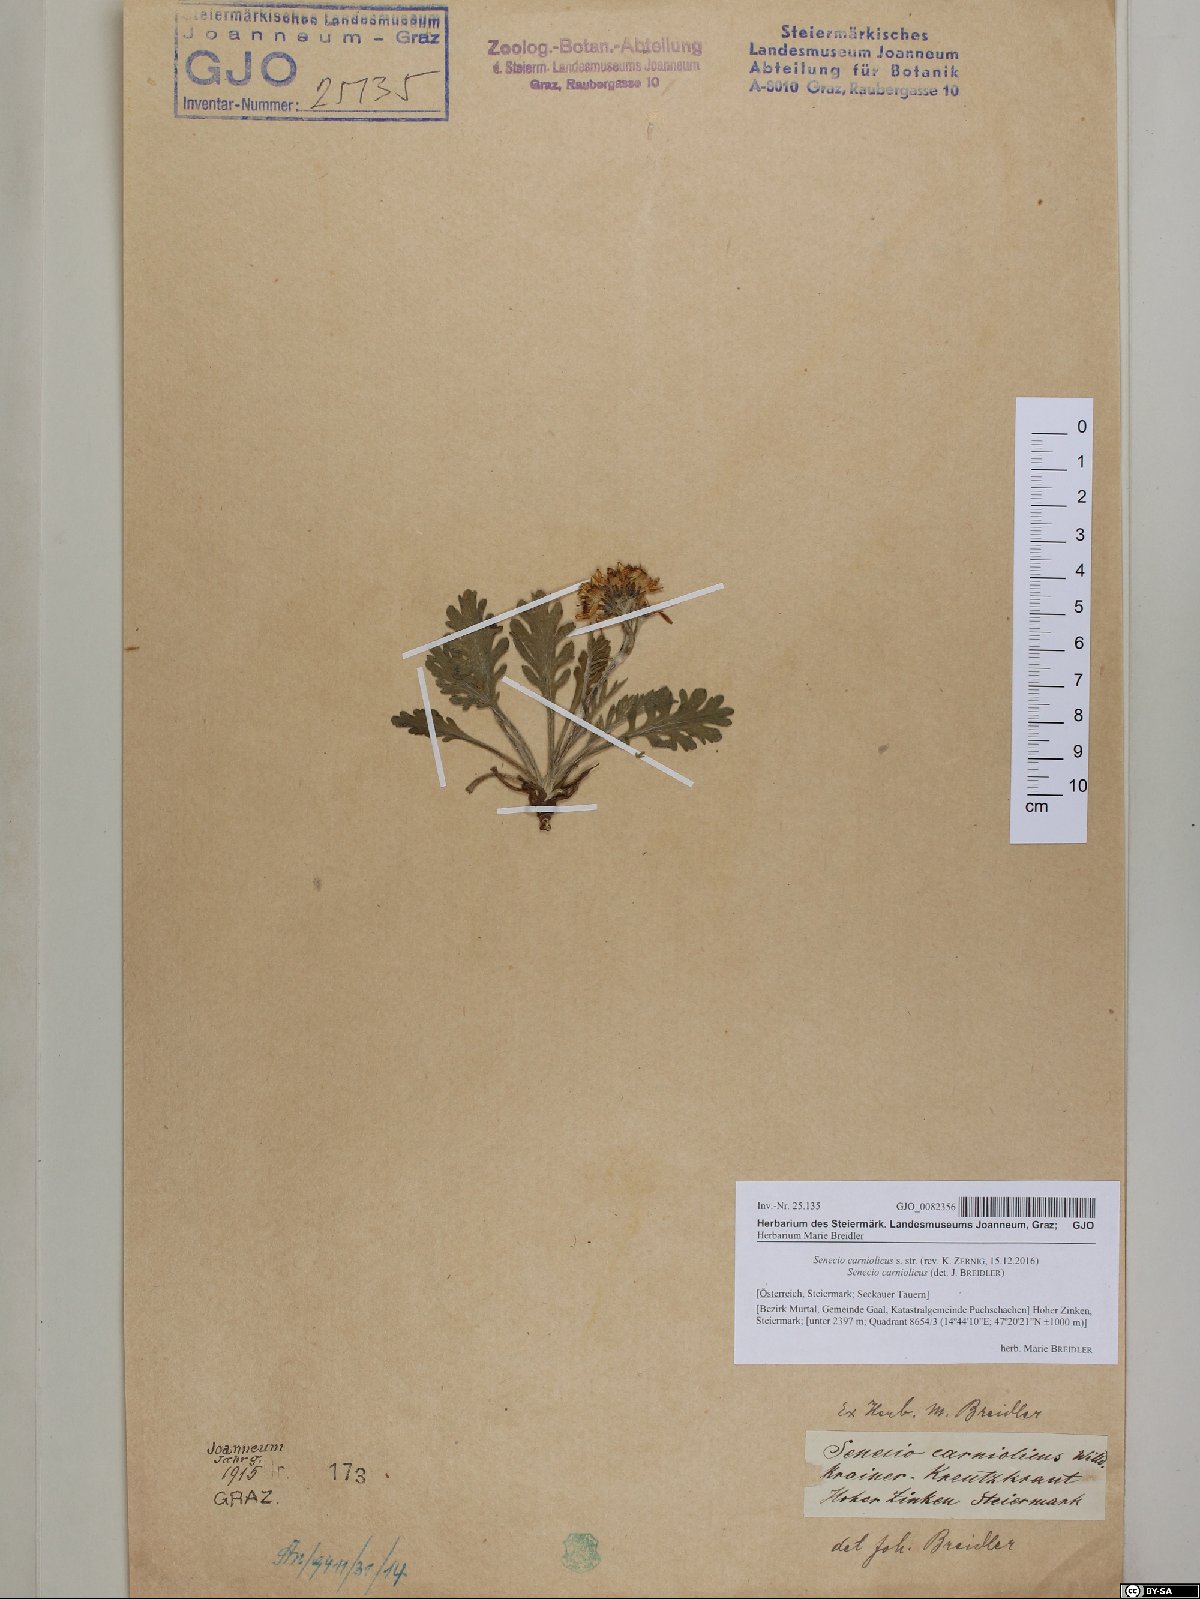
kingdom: Plantae
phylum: Tracheophyta
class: Magnoliopsida
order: Asterales
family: Asteraceae
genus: Jacobaea
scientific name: Jacobaea carniolica
